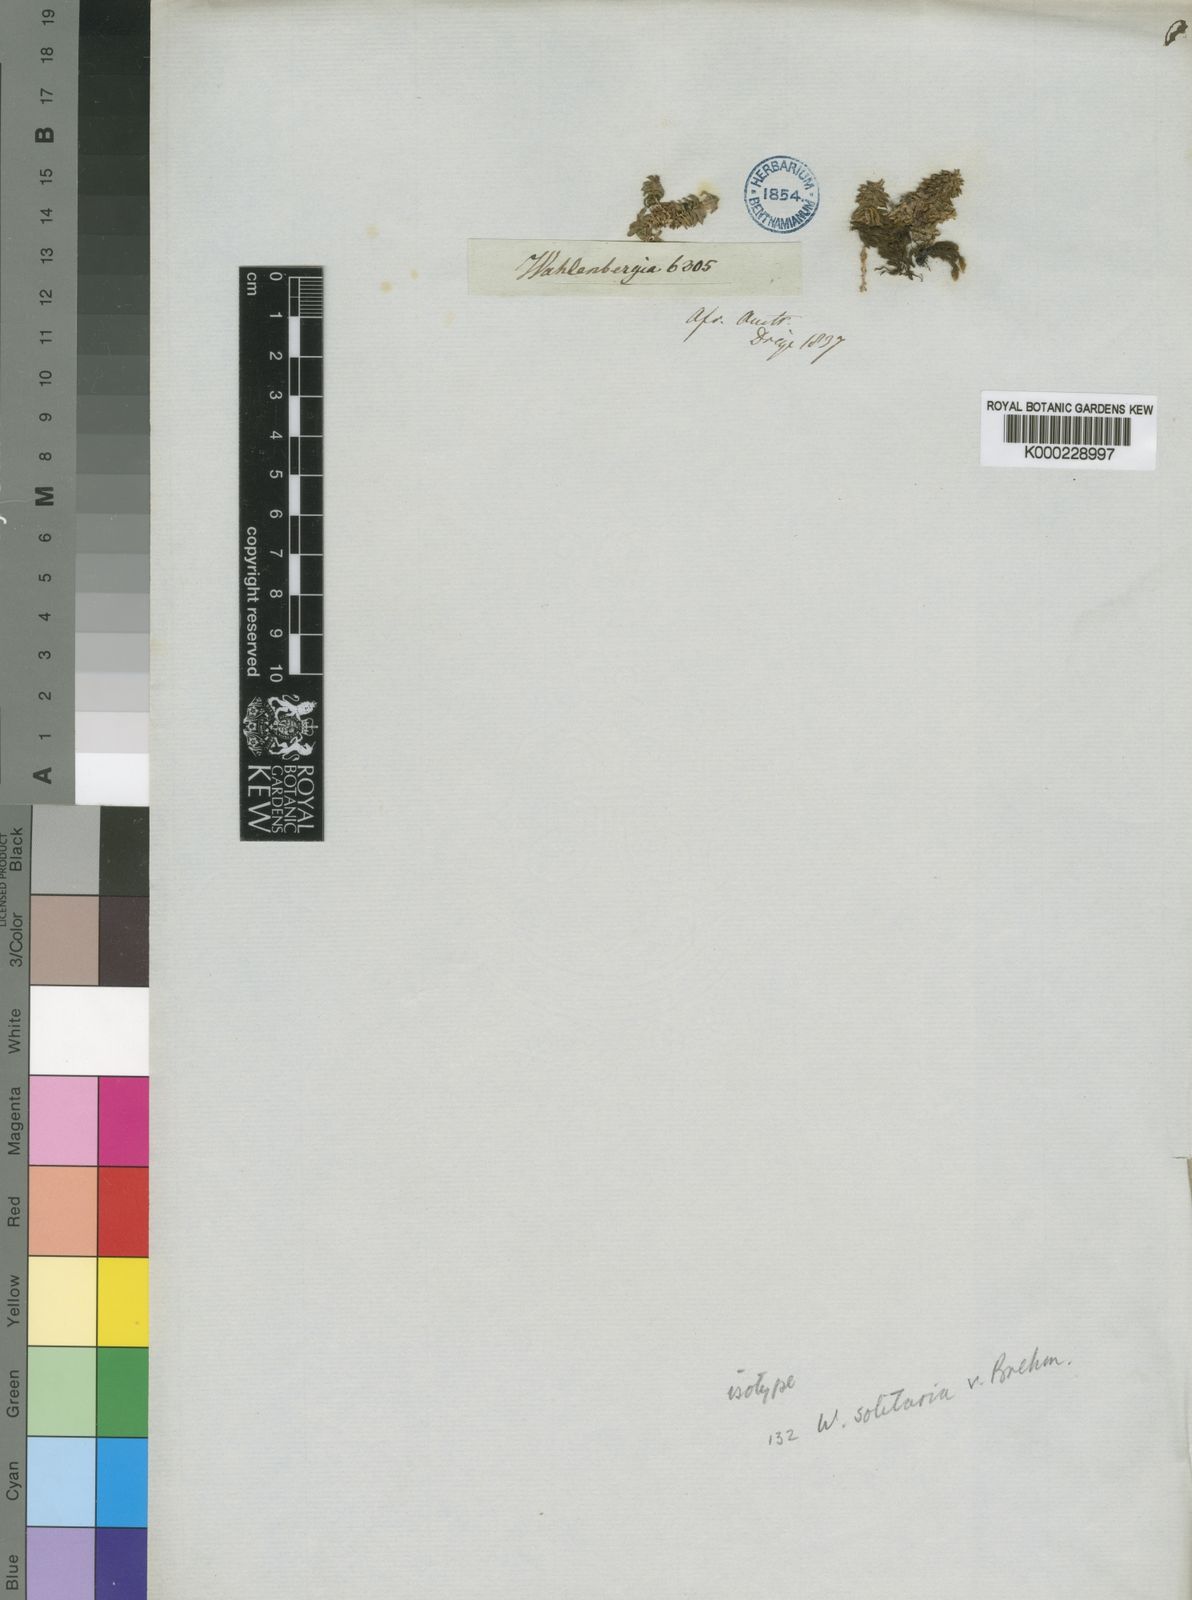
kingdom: Plantae
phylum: Tracheophyta
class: Magnoliopsida
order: Asterales
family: Campanulaceae
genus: Wahlenbergia
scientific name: Wahlenbergia solitaria
